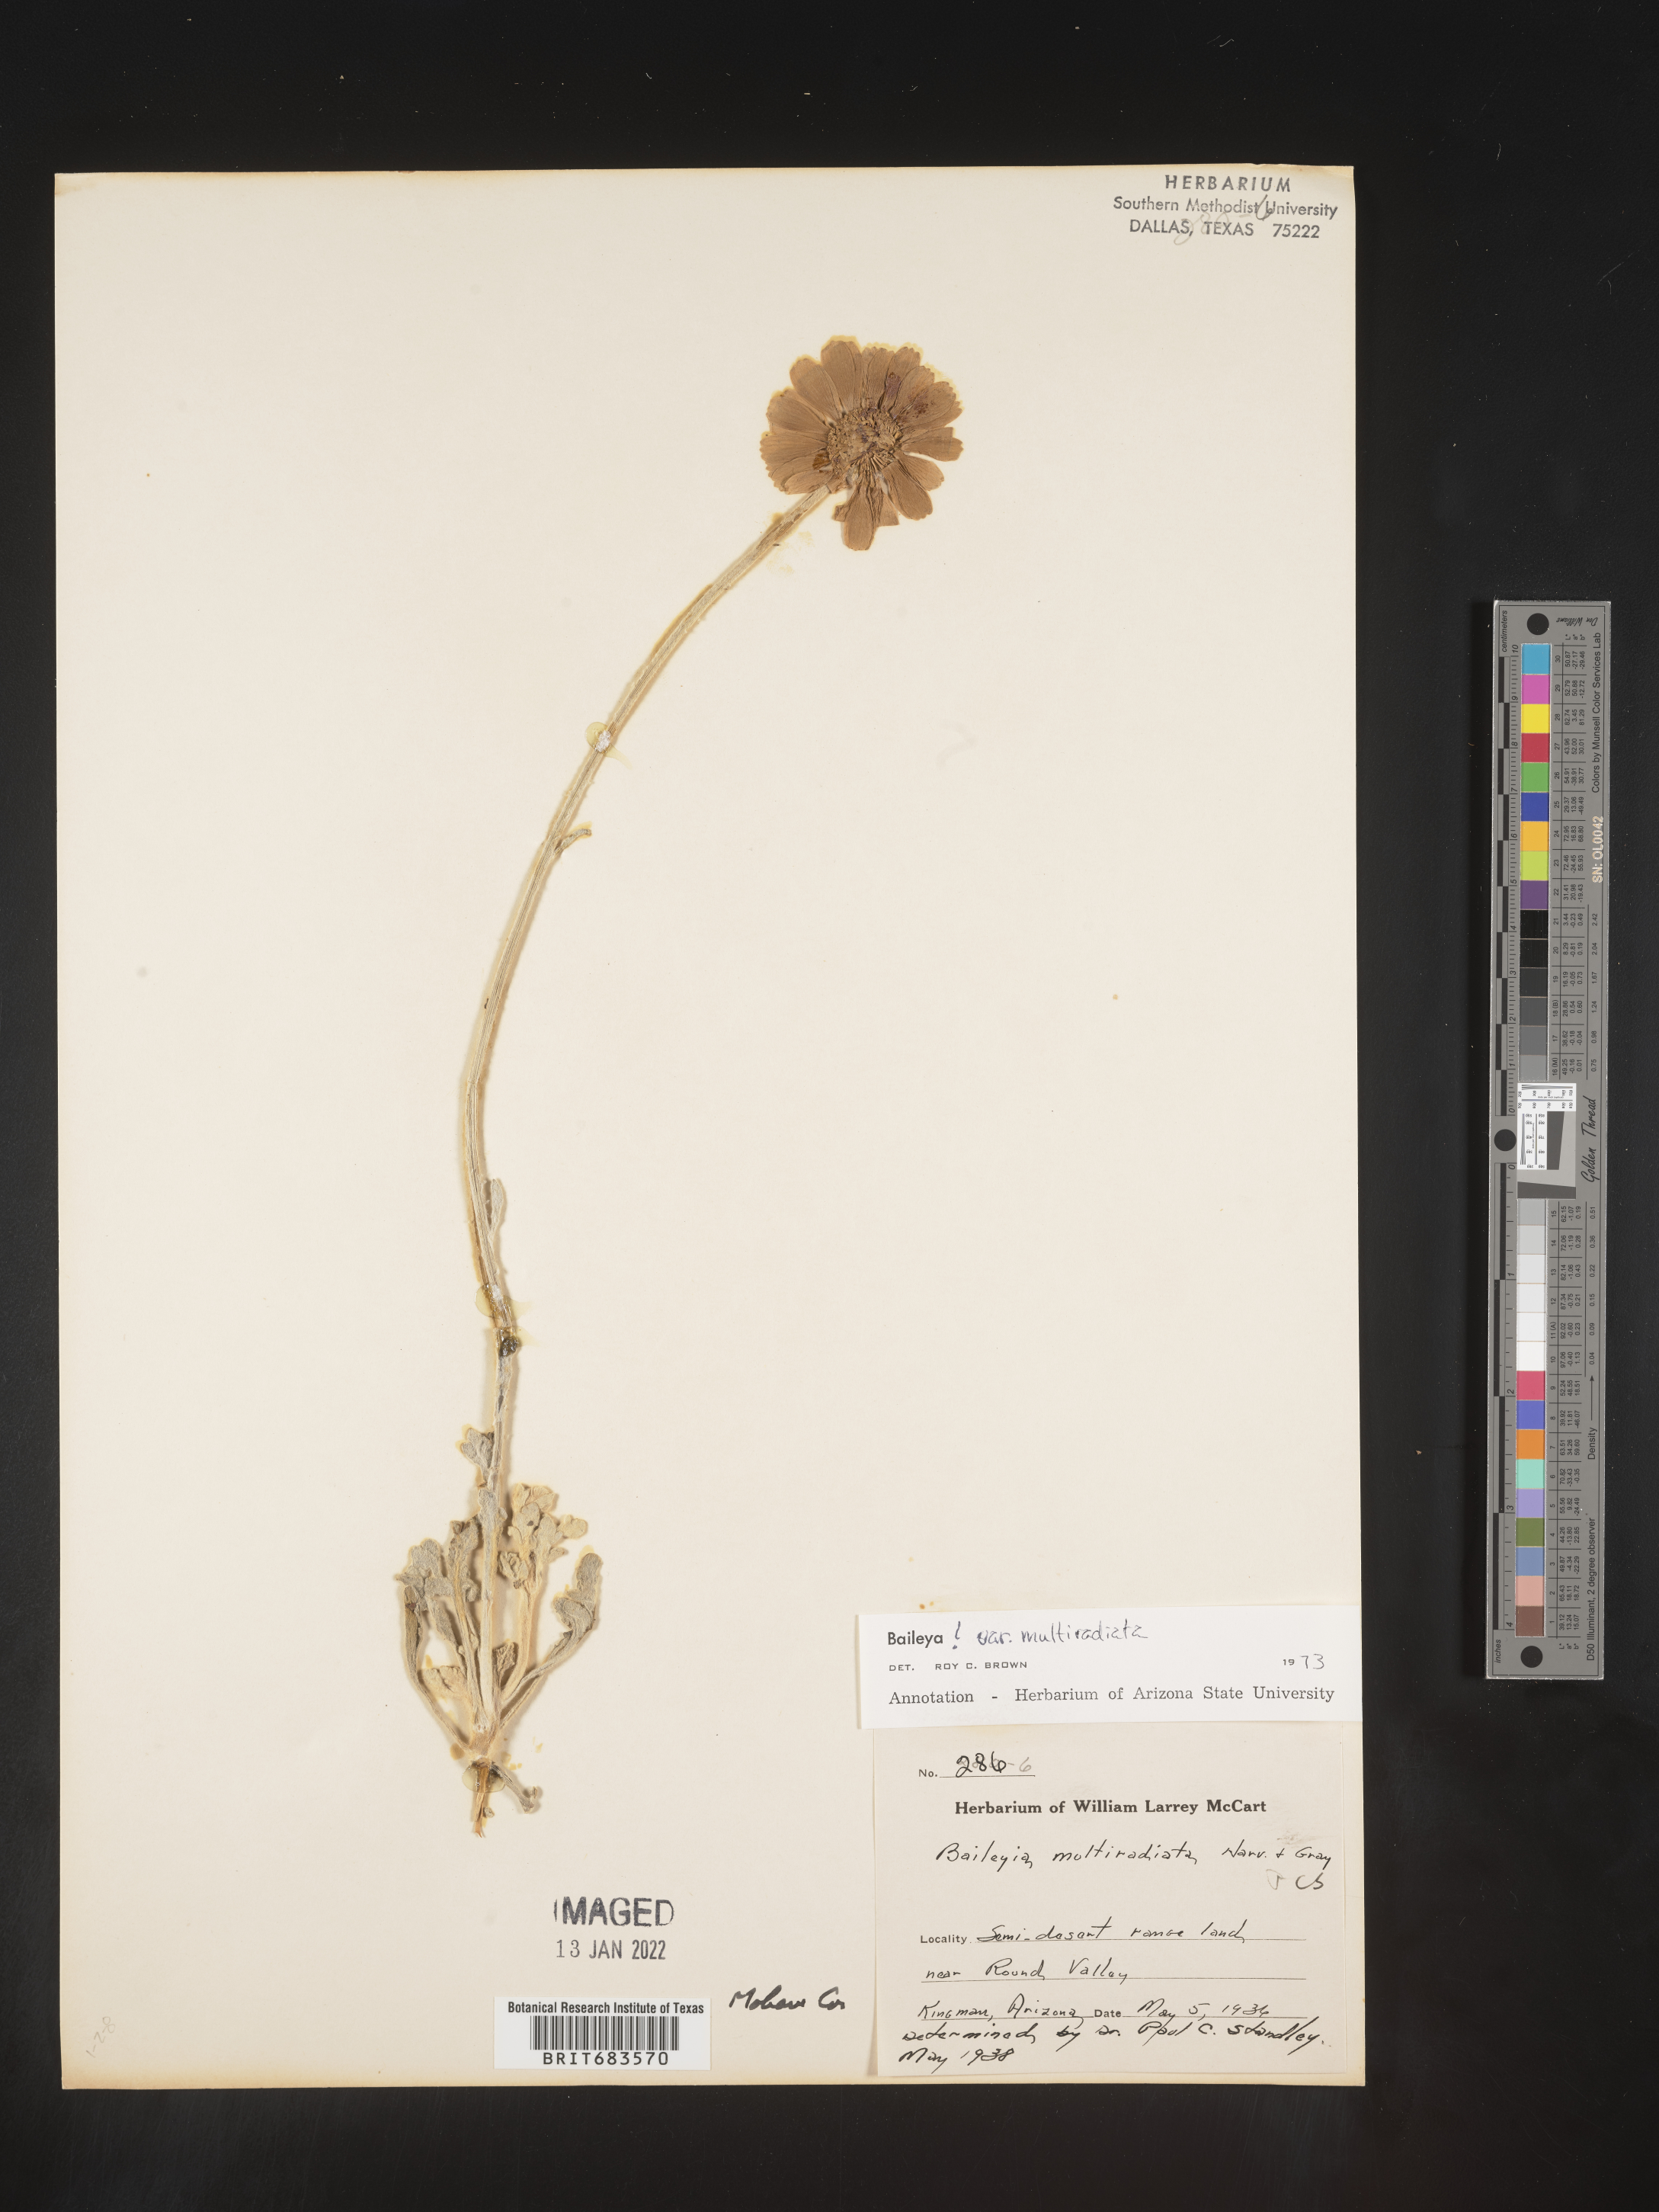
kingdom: Plantae
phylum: Tracheophyta
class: Magnoliopsida
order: Asterales
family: Asteraceae
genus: Baileya
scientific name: Baileya multiradiata
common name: Desert-marigold
